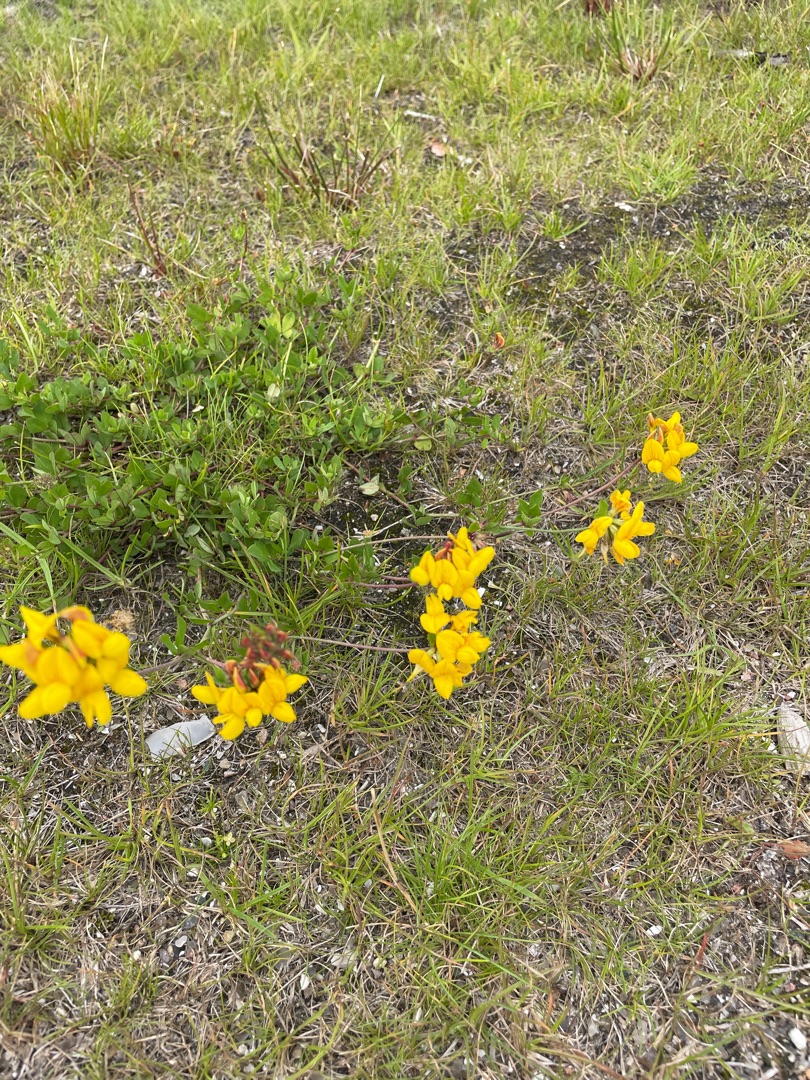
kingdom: Plantae
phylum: Tracheophyta
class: Magnoliopsida
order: Fabales
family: Fabaceae
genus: Lotus
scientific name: Lotus corniculatus
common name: Almindelig kællingetand
